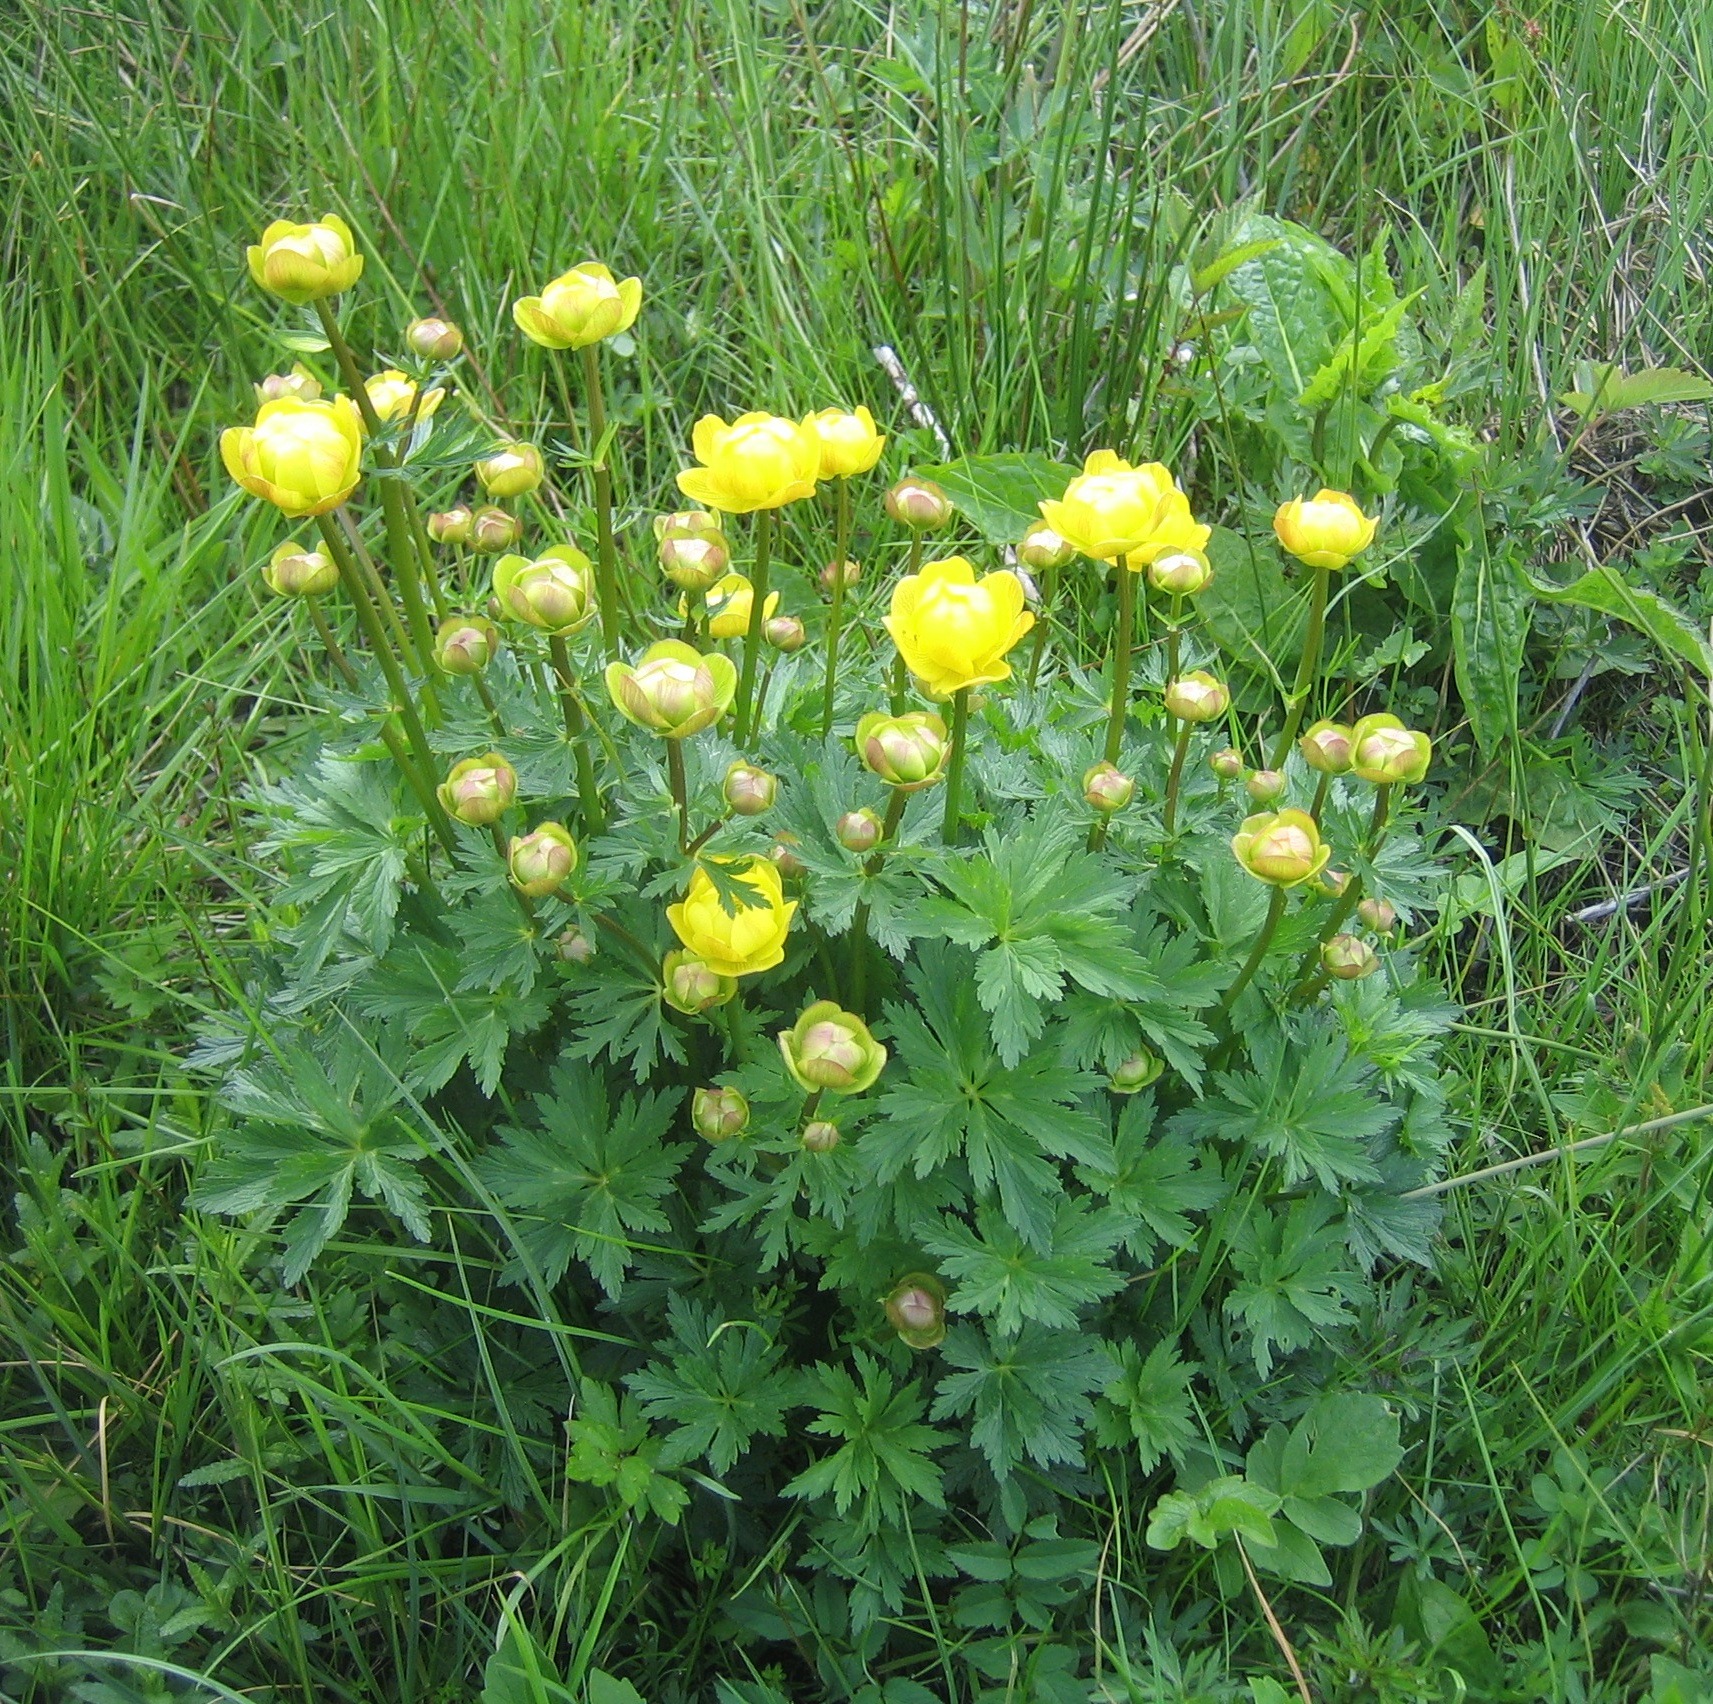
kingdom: Plantae
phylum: Tracheophyta
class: Magnoliopsida
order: Ranunculales
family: Ranunculaceae
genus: Trollius
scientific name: Trollius europaeus
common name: Engblomme
